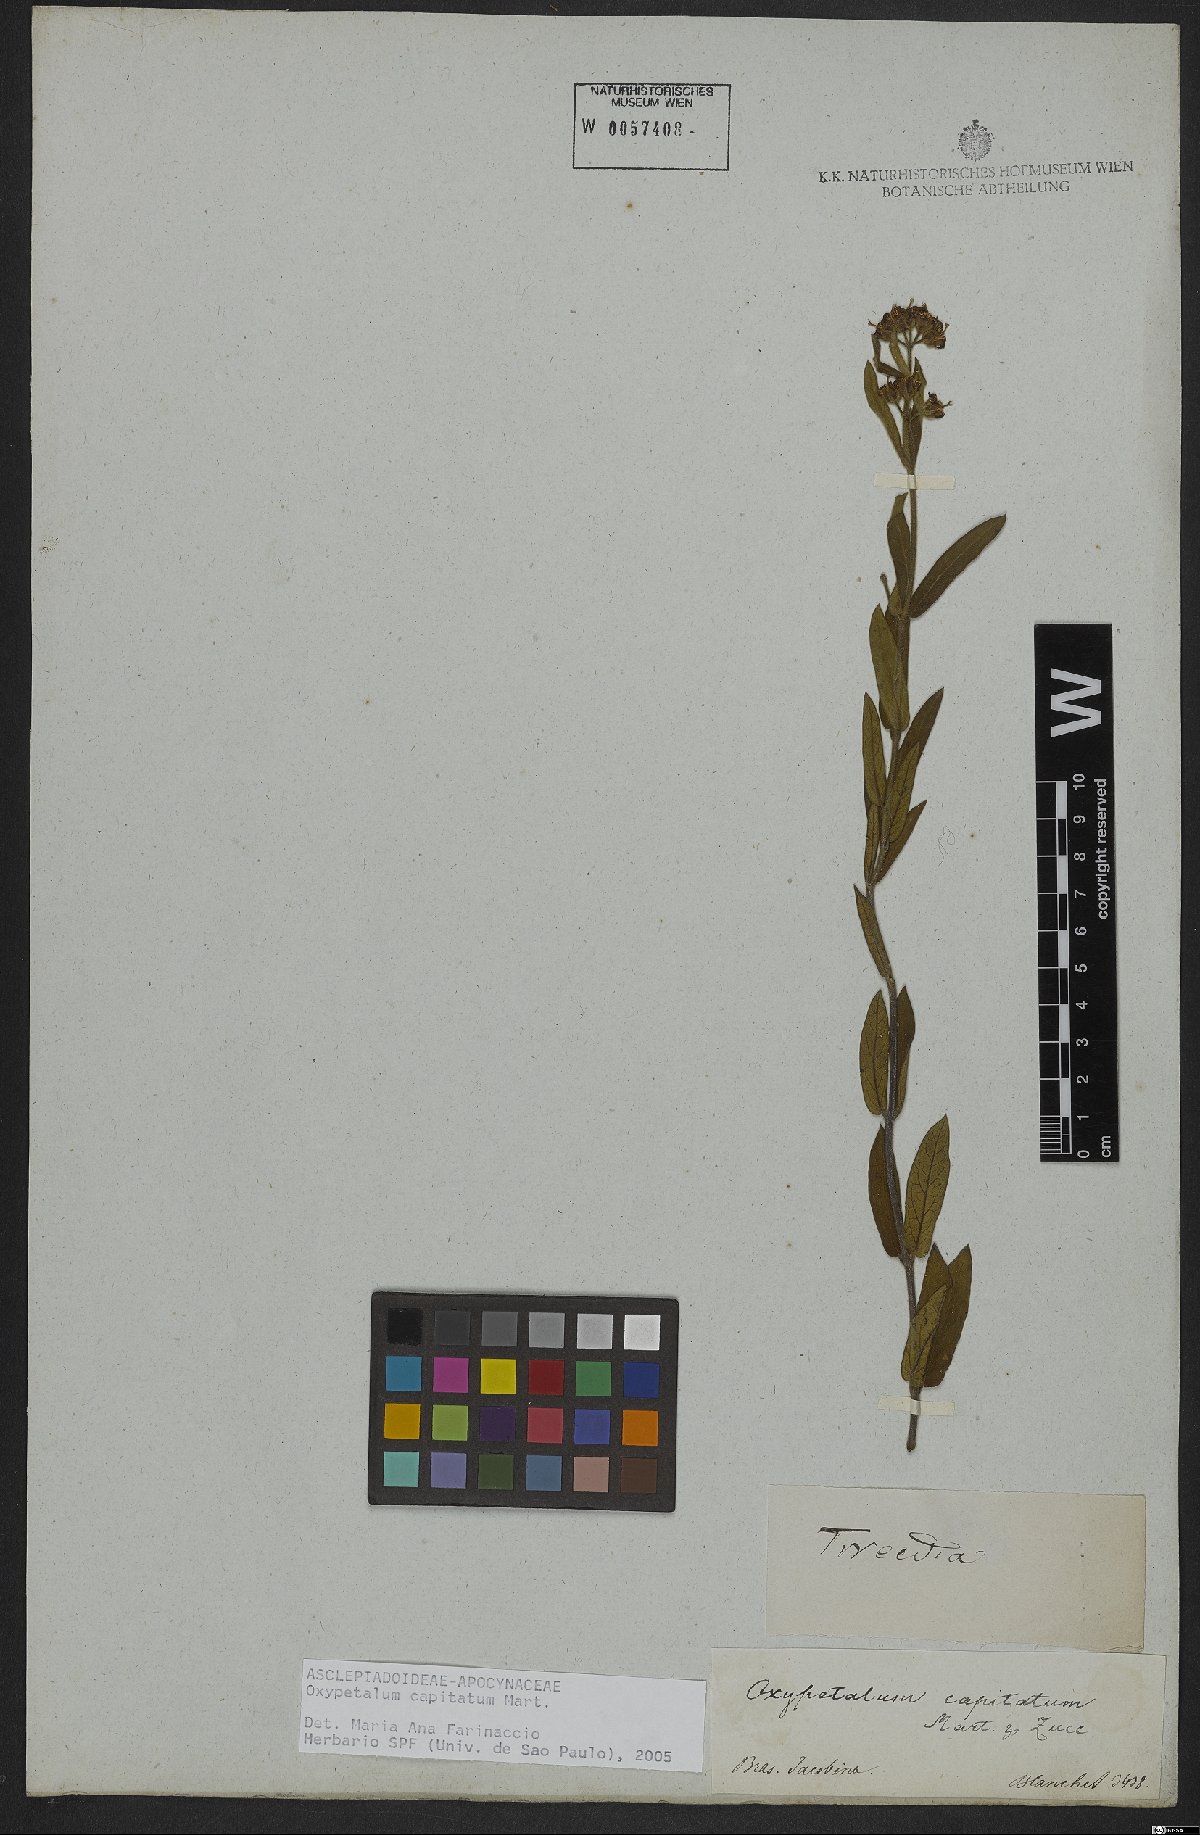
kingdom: Plantae
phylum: Tracheophyta
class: Magnoliopsida
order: Gentianales
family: Apocynaceae
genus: Oxypetalum
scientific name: Oxypetalum capitatum
